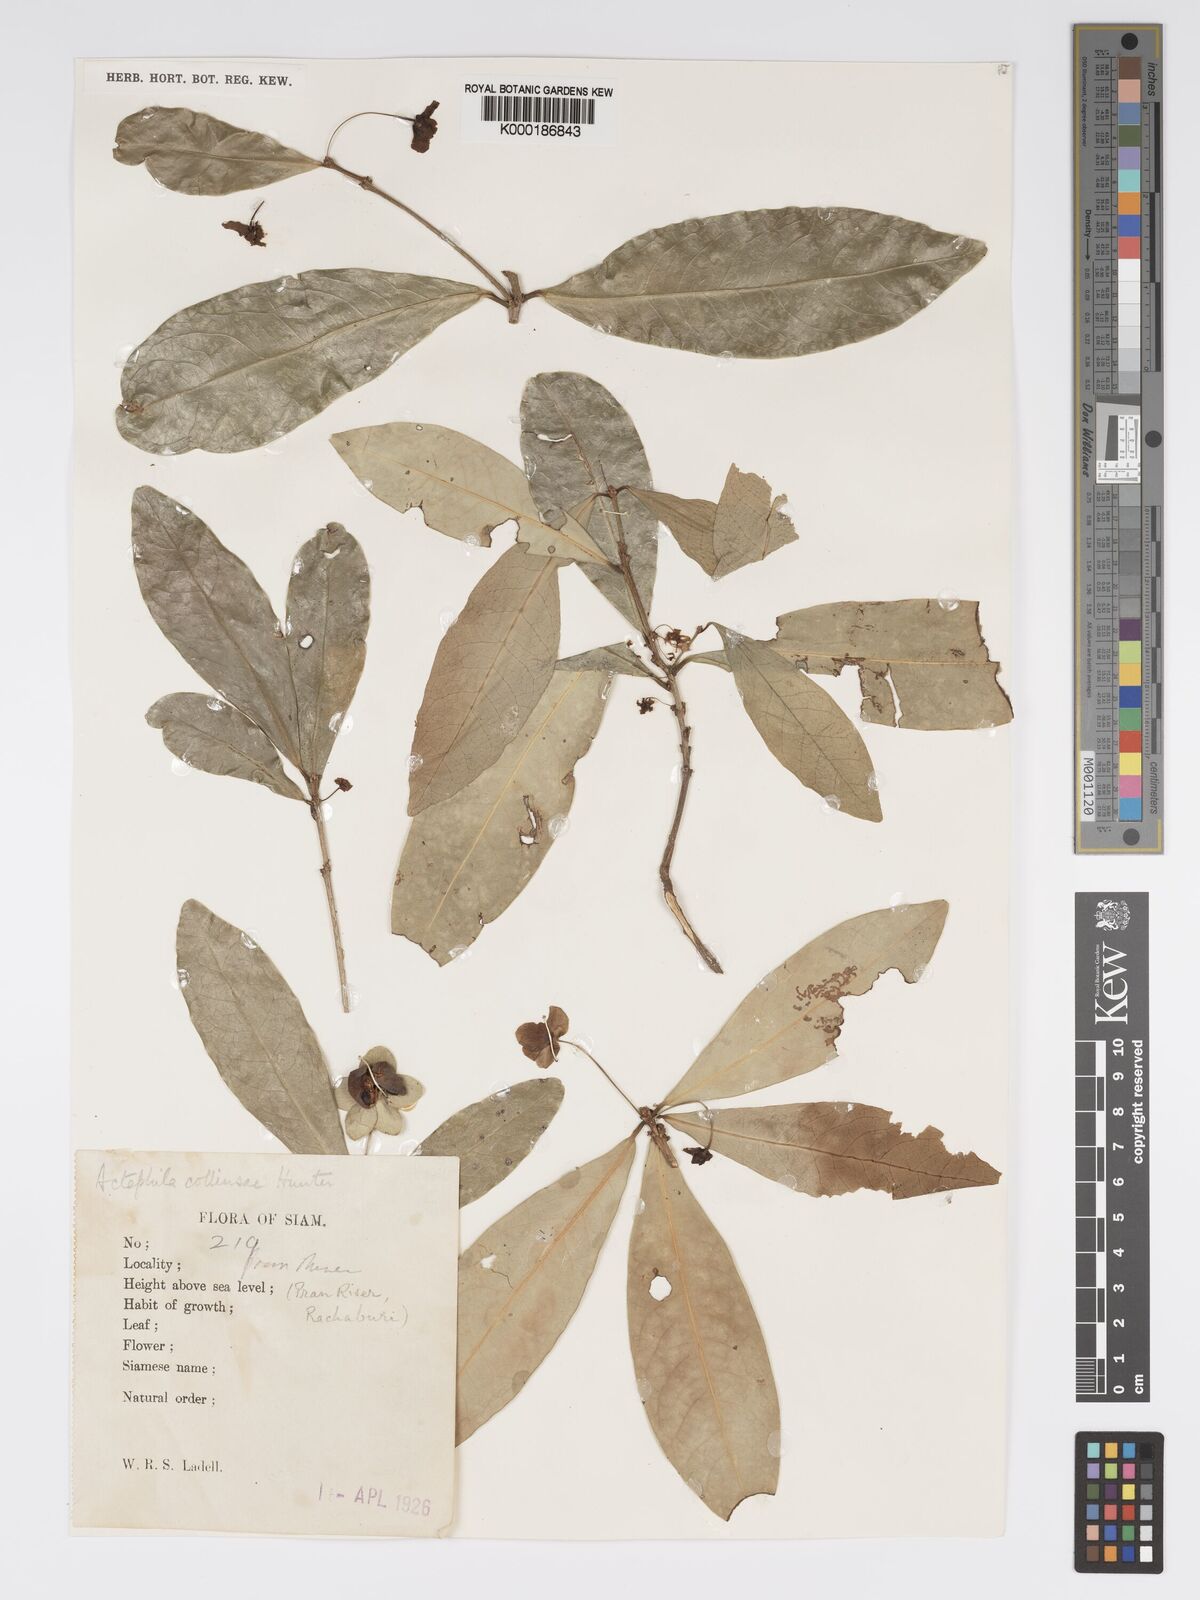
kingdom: Plantae
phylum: Tracheophyta
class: Magnoliopsida
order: Malpighiales
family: Phyllanthaceae
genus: Actephila
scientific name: Actephila collinsiae
